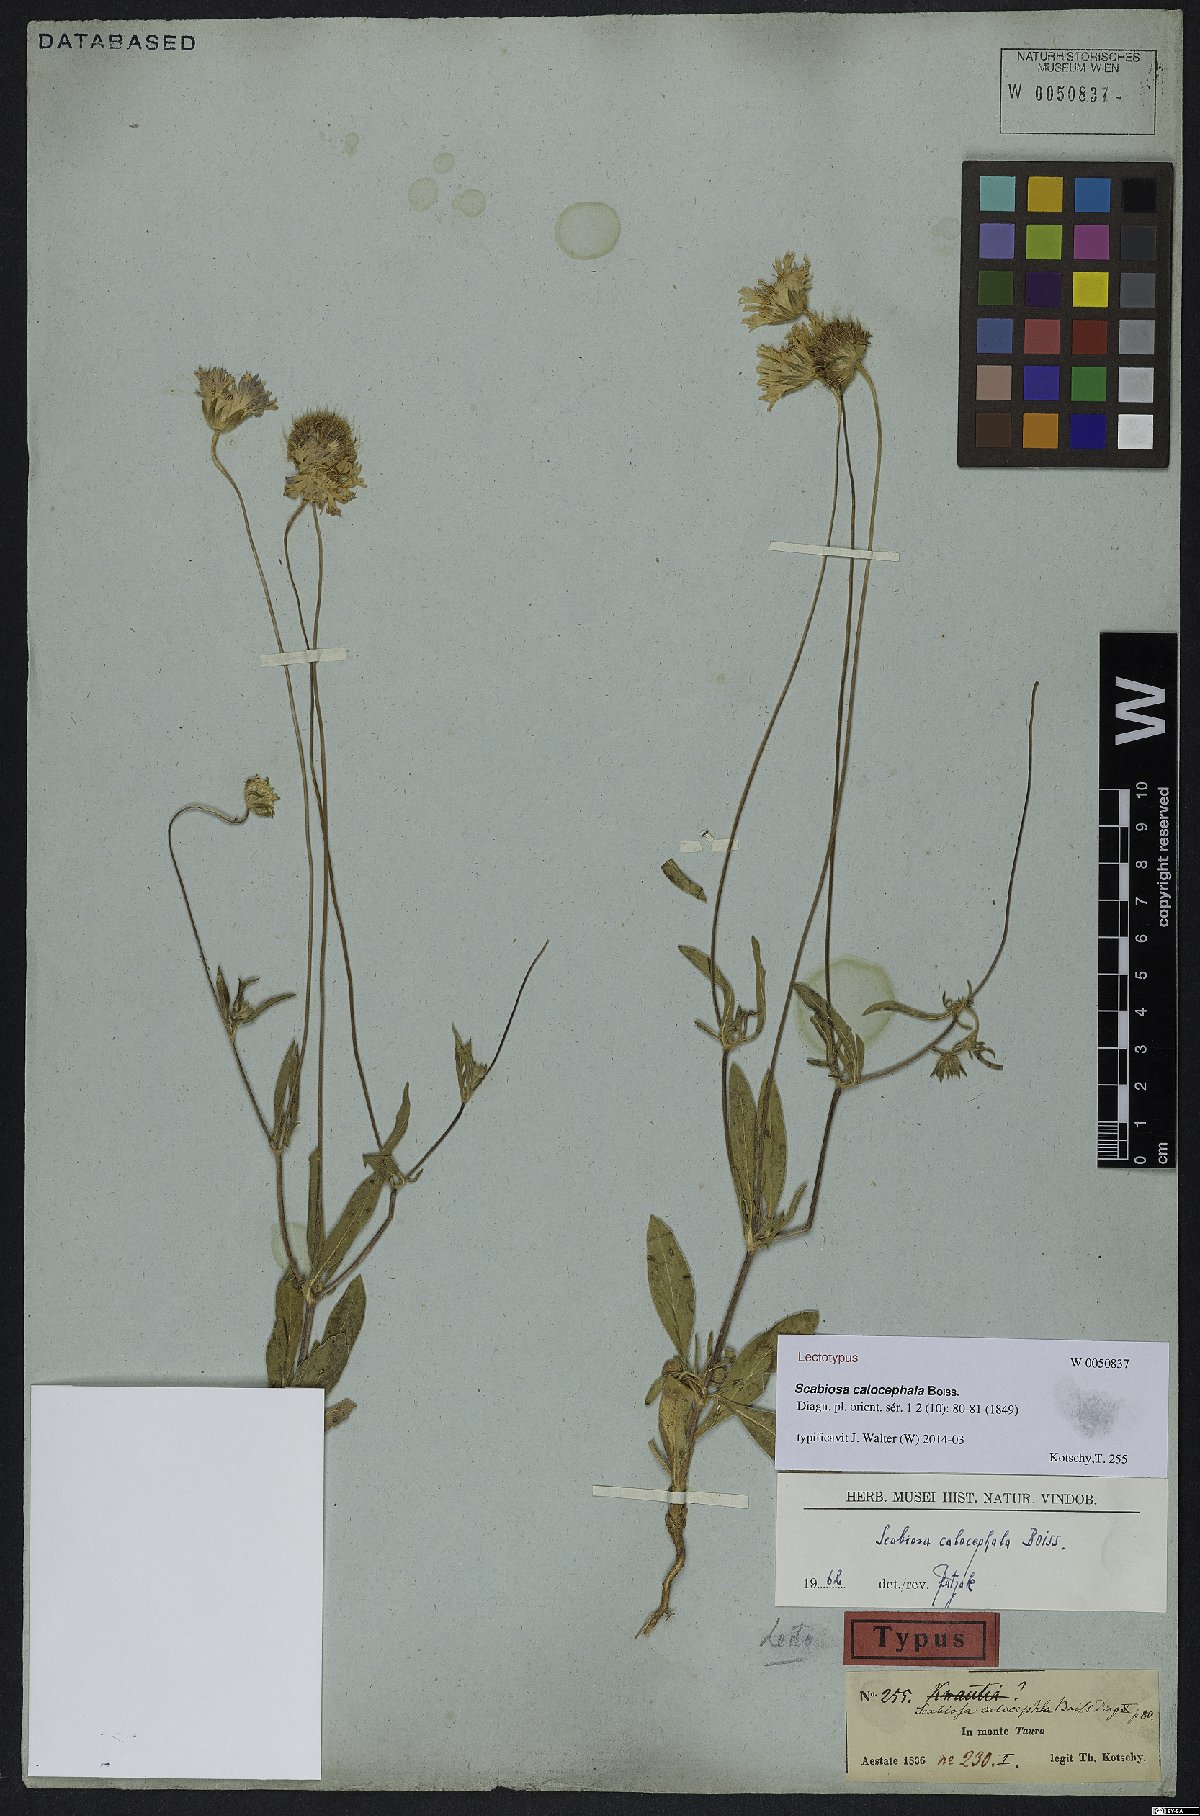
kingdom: Plantae
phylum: Tracheophyta
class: Magnoliopsida
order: Dipsacales
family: Caprifoliaceae
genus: Lomelosia
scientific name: Lomelosia calocephala
